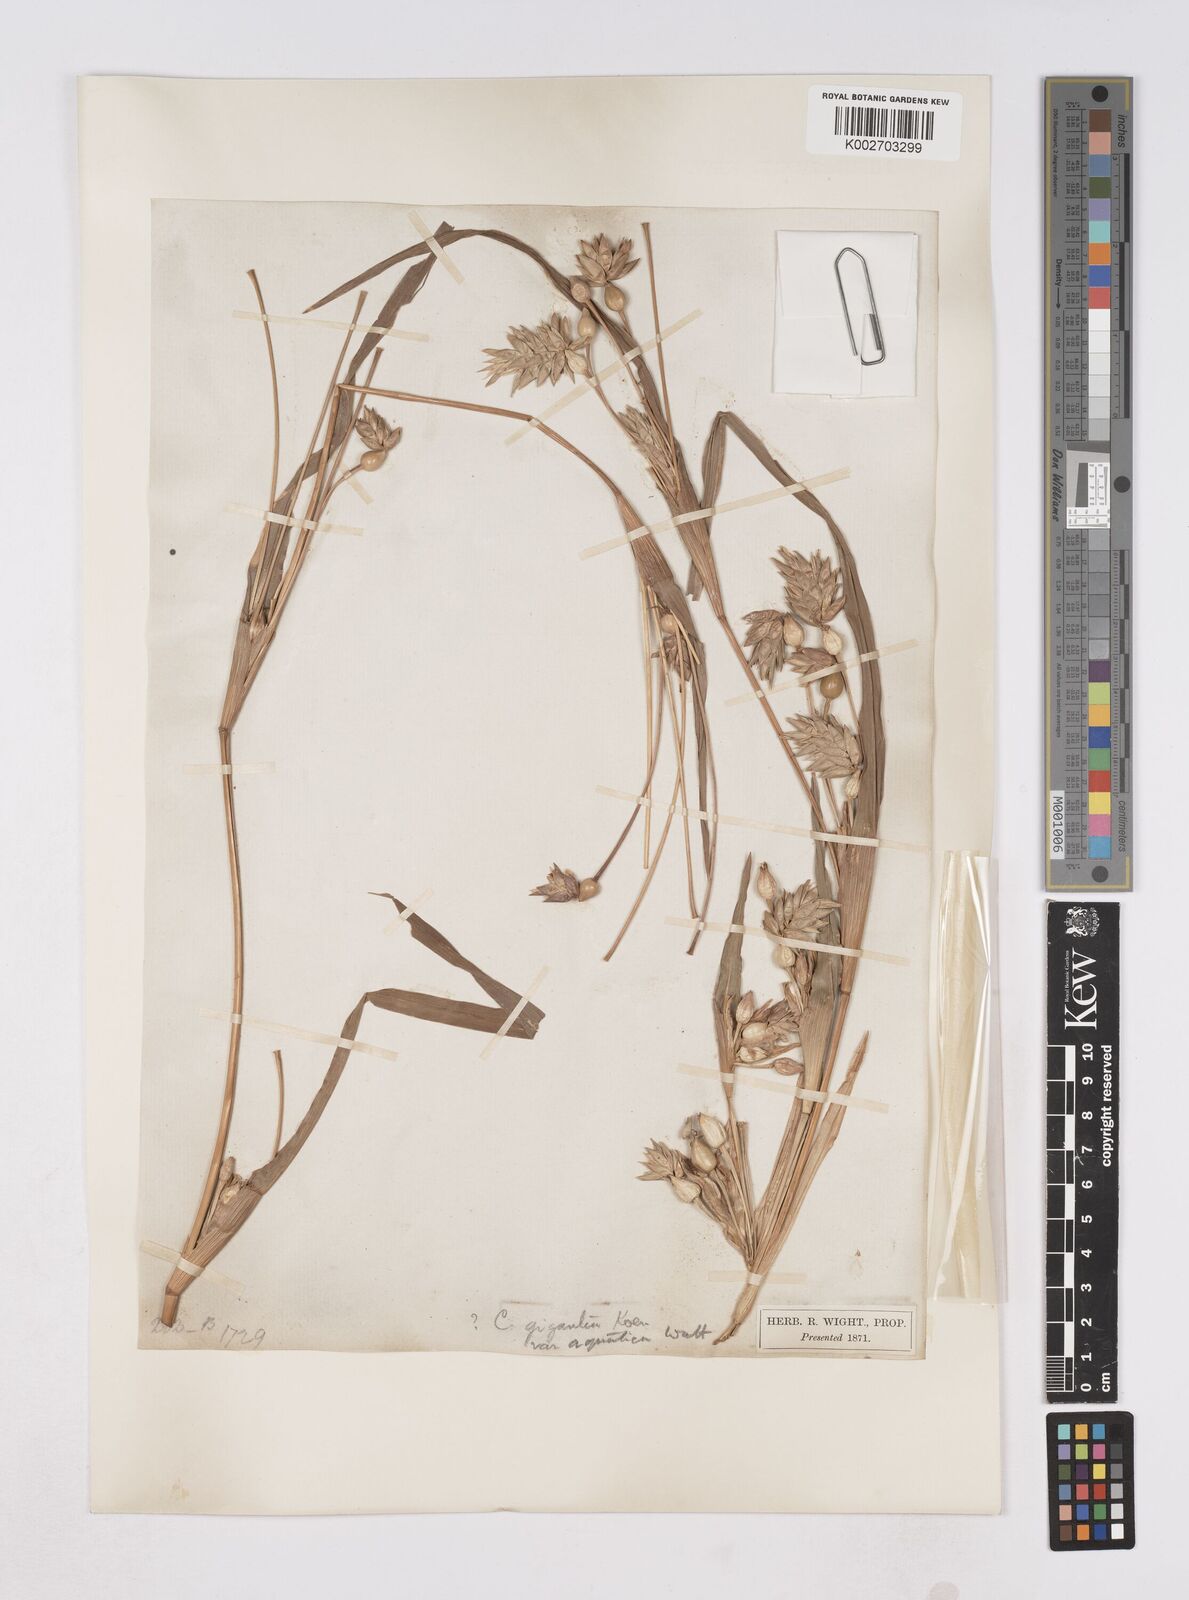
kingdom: Plantae
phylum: Tracheophyta
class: Liliopsida
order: Poales
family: Poaceae
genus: Coix
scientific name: Coix aquatica
